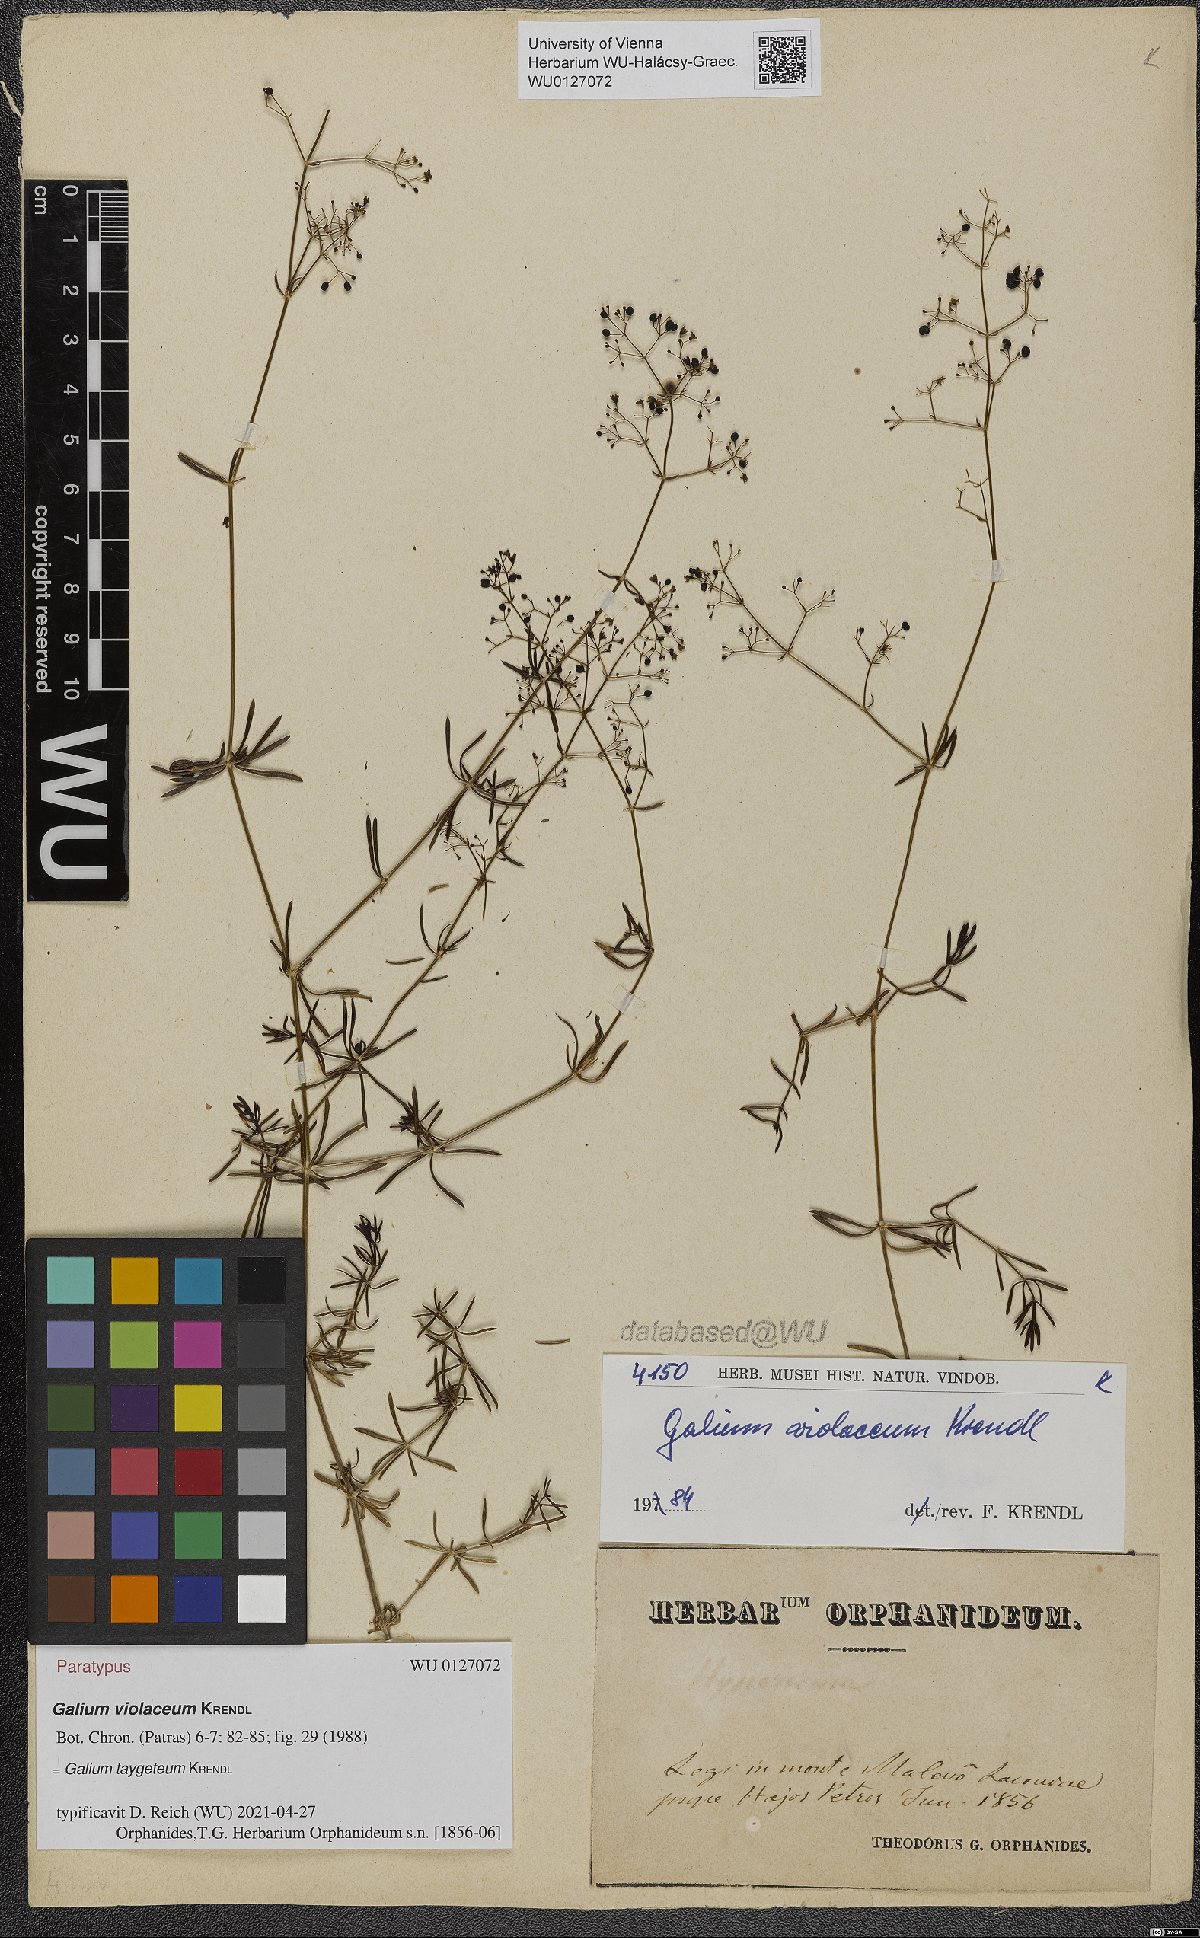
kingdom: Plantae
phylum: Tracheophyta
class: Magnoliopsida
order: Gentianales
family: Rubiaceae
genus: Galium
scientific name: Galium taygeteum
